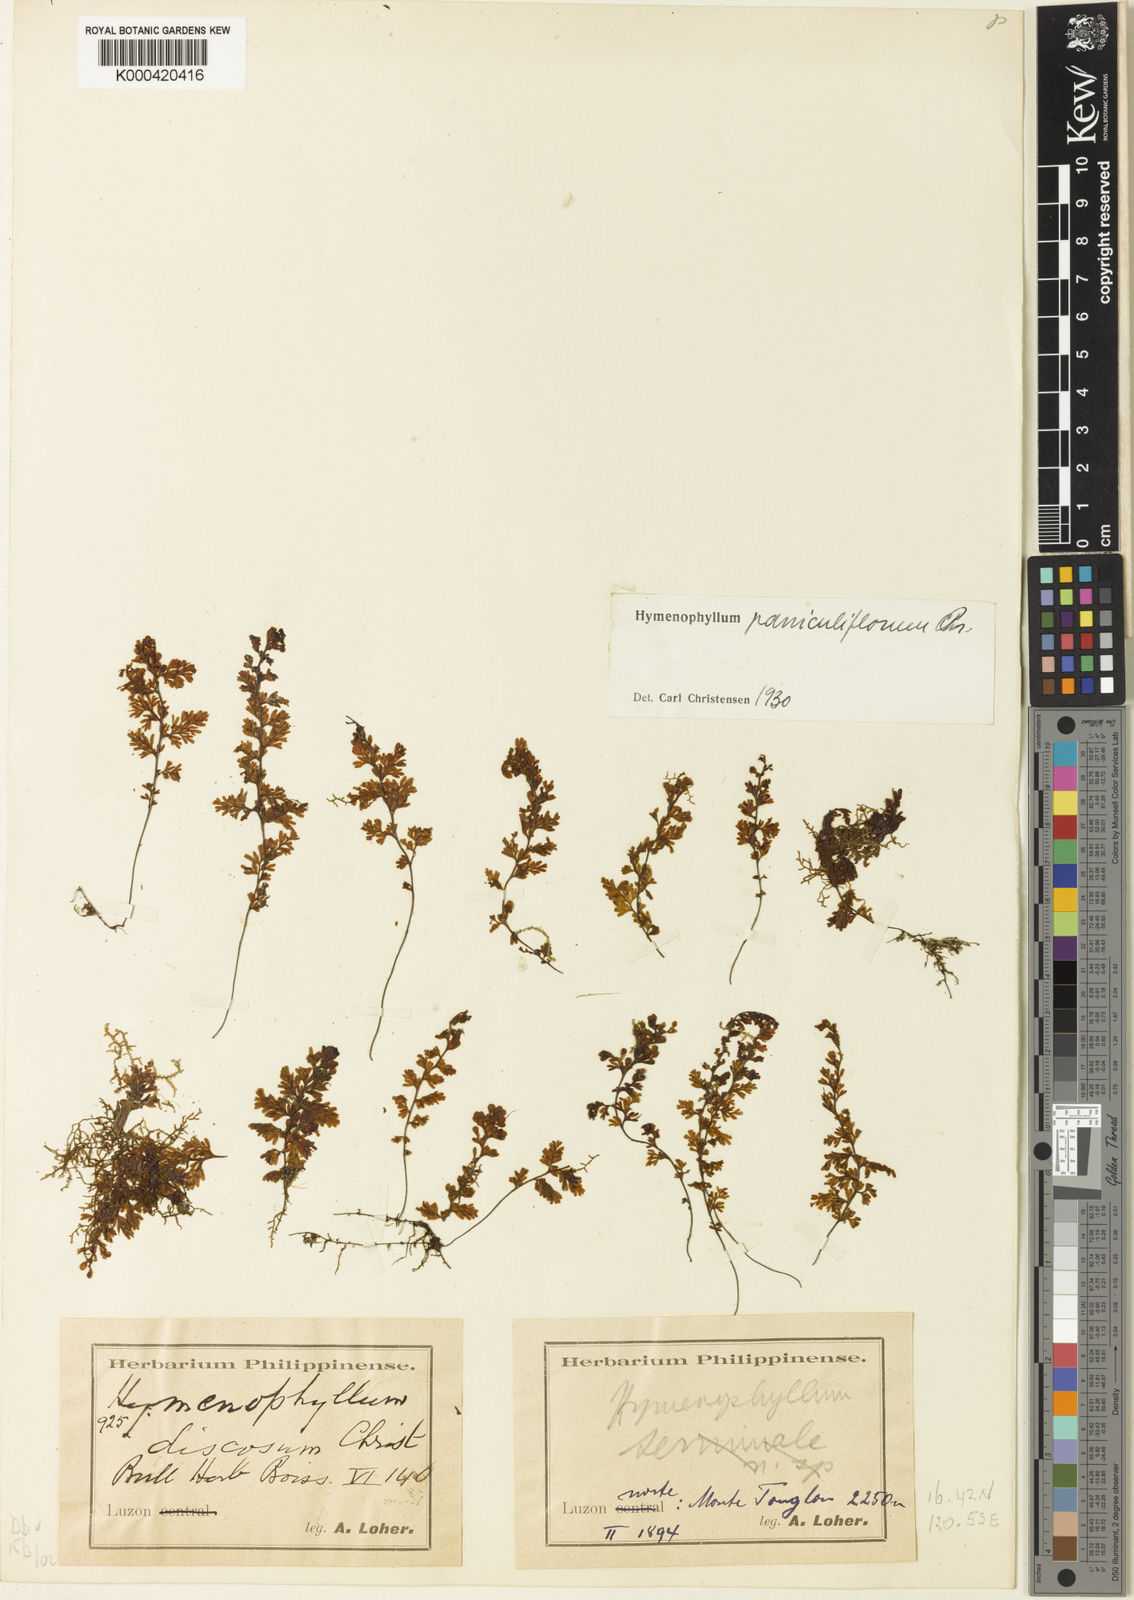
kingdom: Plantae
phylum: Tracheophyta
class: Polypodiopsida
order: Hymenophyllales
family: Hymenophyllaceae
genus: Hymenophyllum
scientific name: Hymenophyllum paniculiflorum
